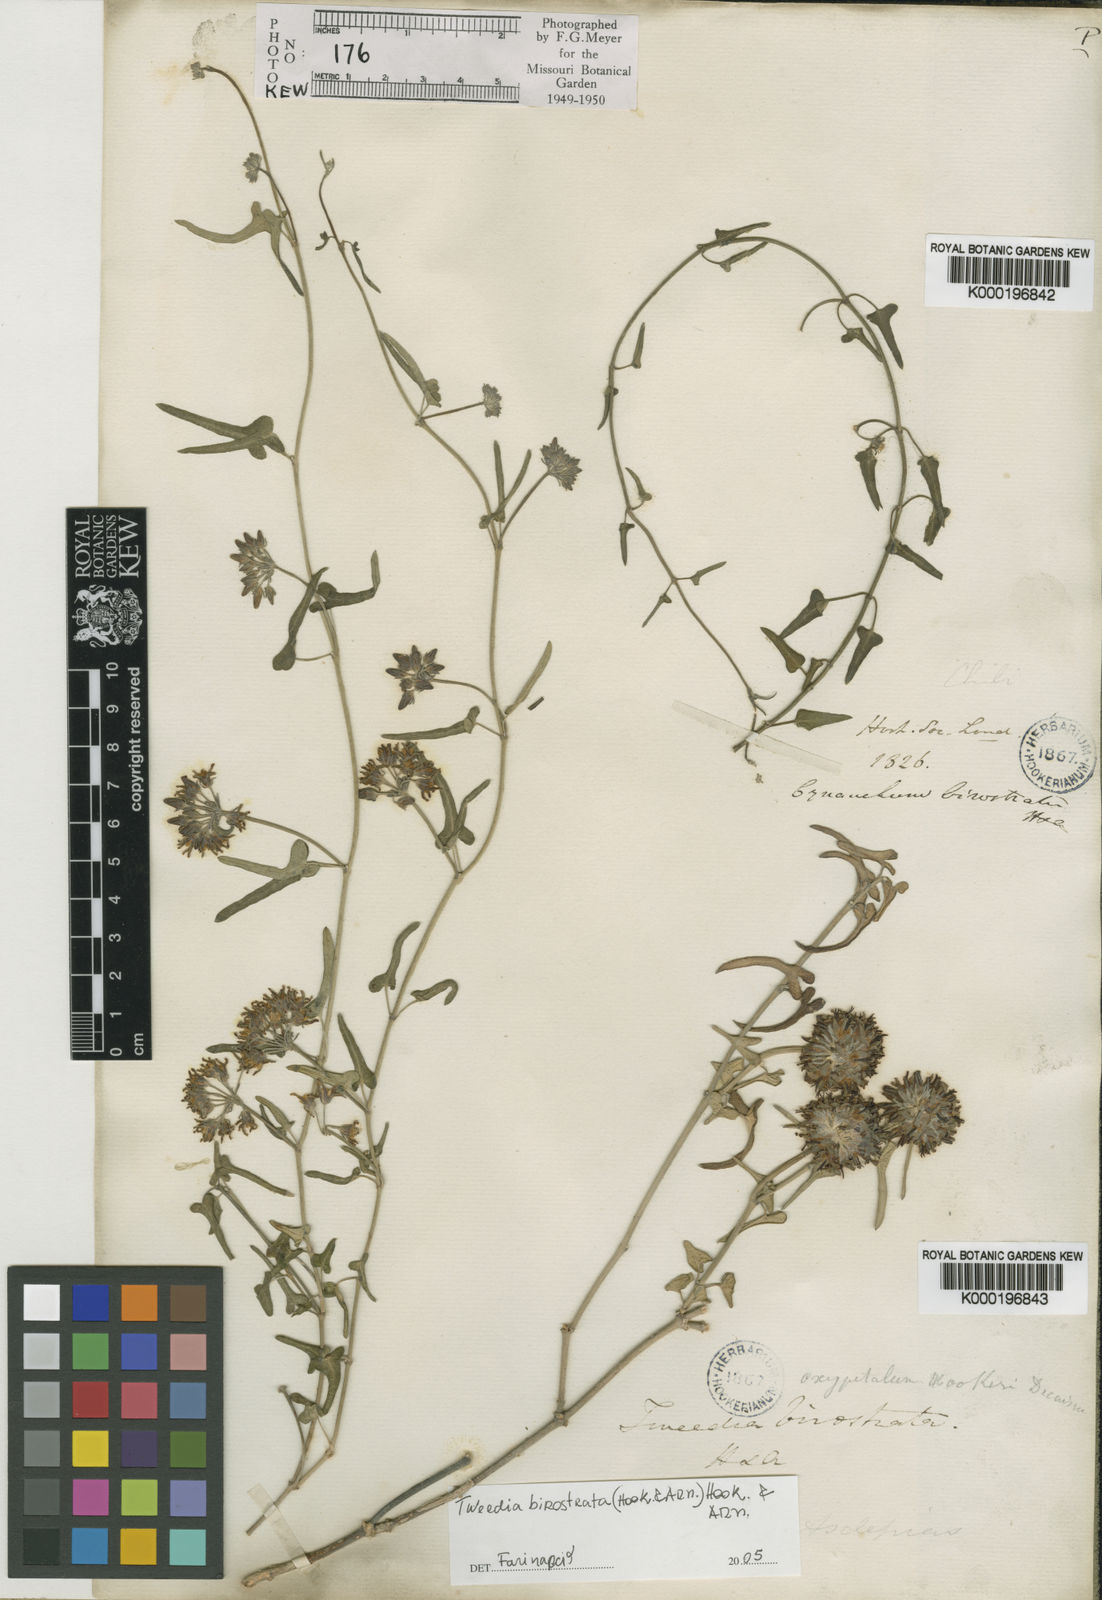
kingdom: Plantae
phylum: Tracheophyta
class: Magnoliopsida
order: Gentianales
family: Apocynaceae
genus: Tweedia
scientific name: Tweedia birostrata
